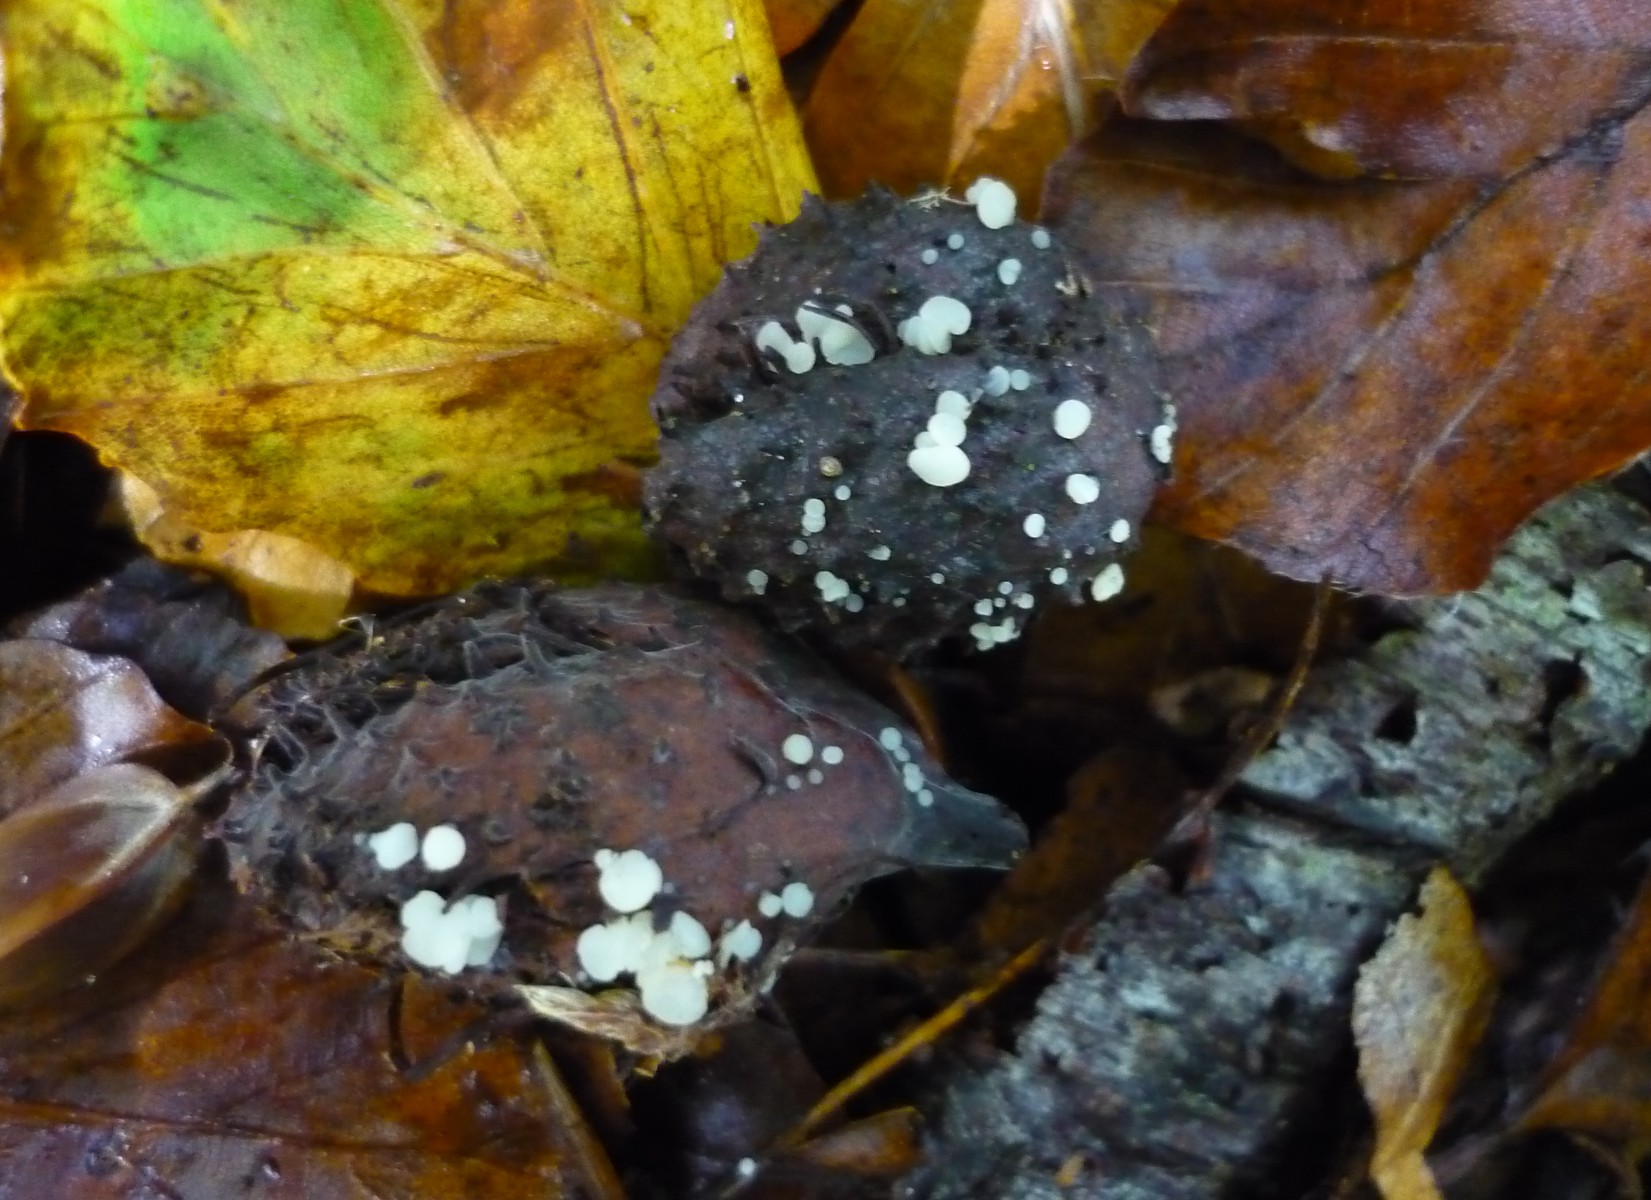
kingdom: Fungi
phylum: Ascomycota
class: Leotiomycetes
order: Helotiales
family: Helotiaceae
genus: Hymenoscyphus
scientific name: Hymenoscyphus fagineus
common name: vellugtende stilkskive
